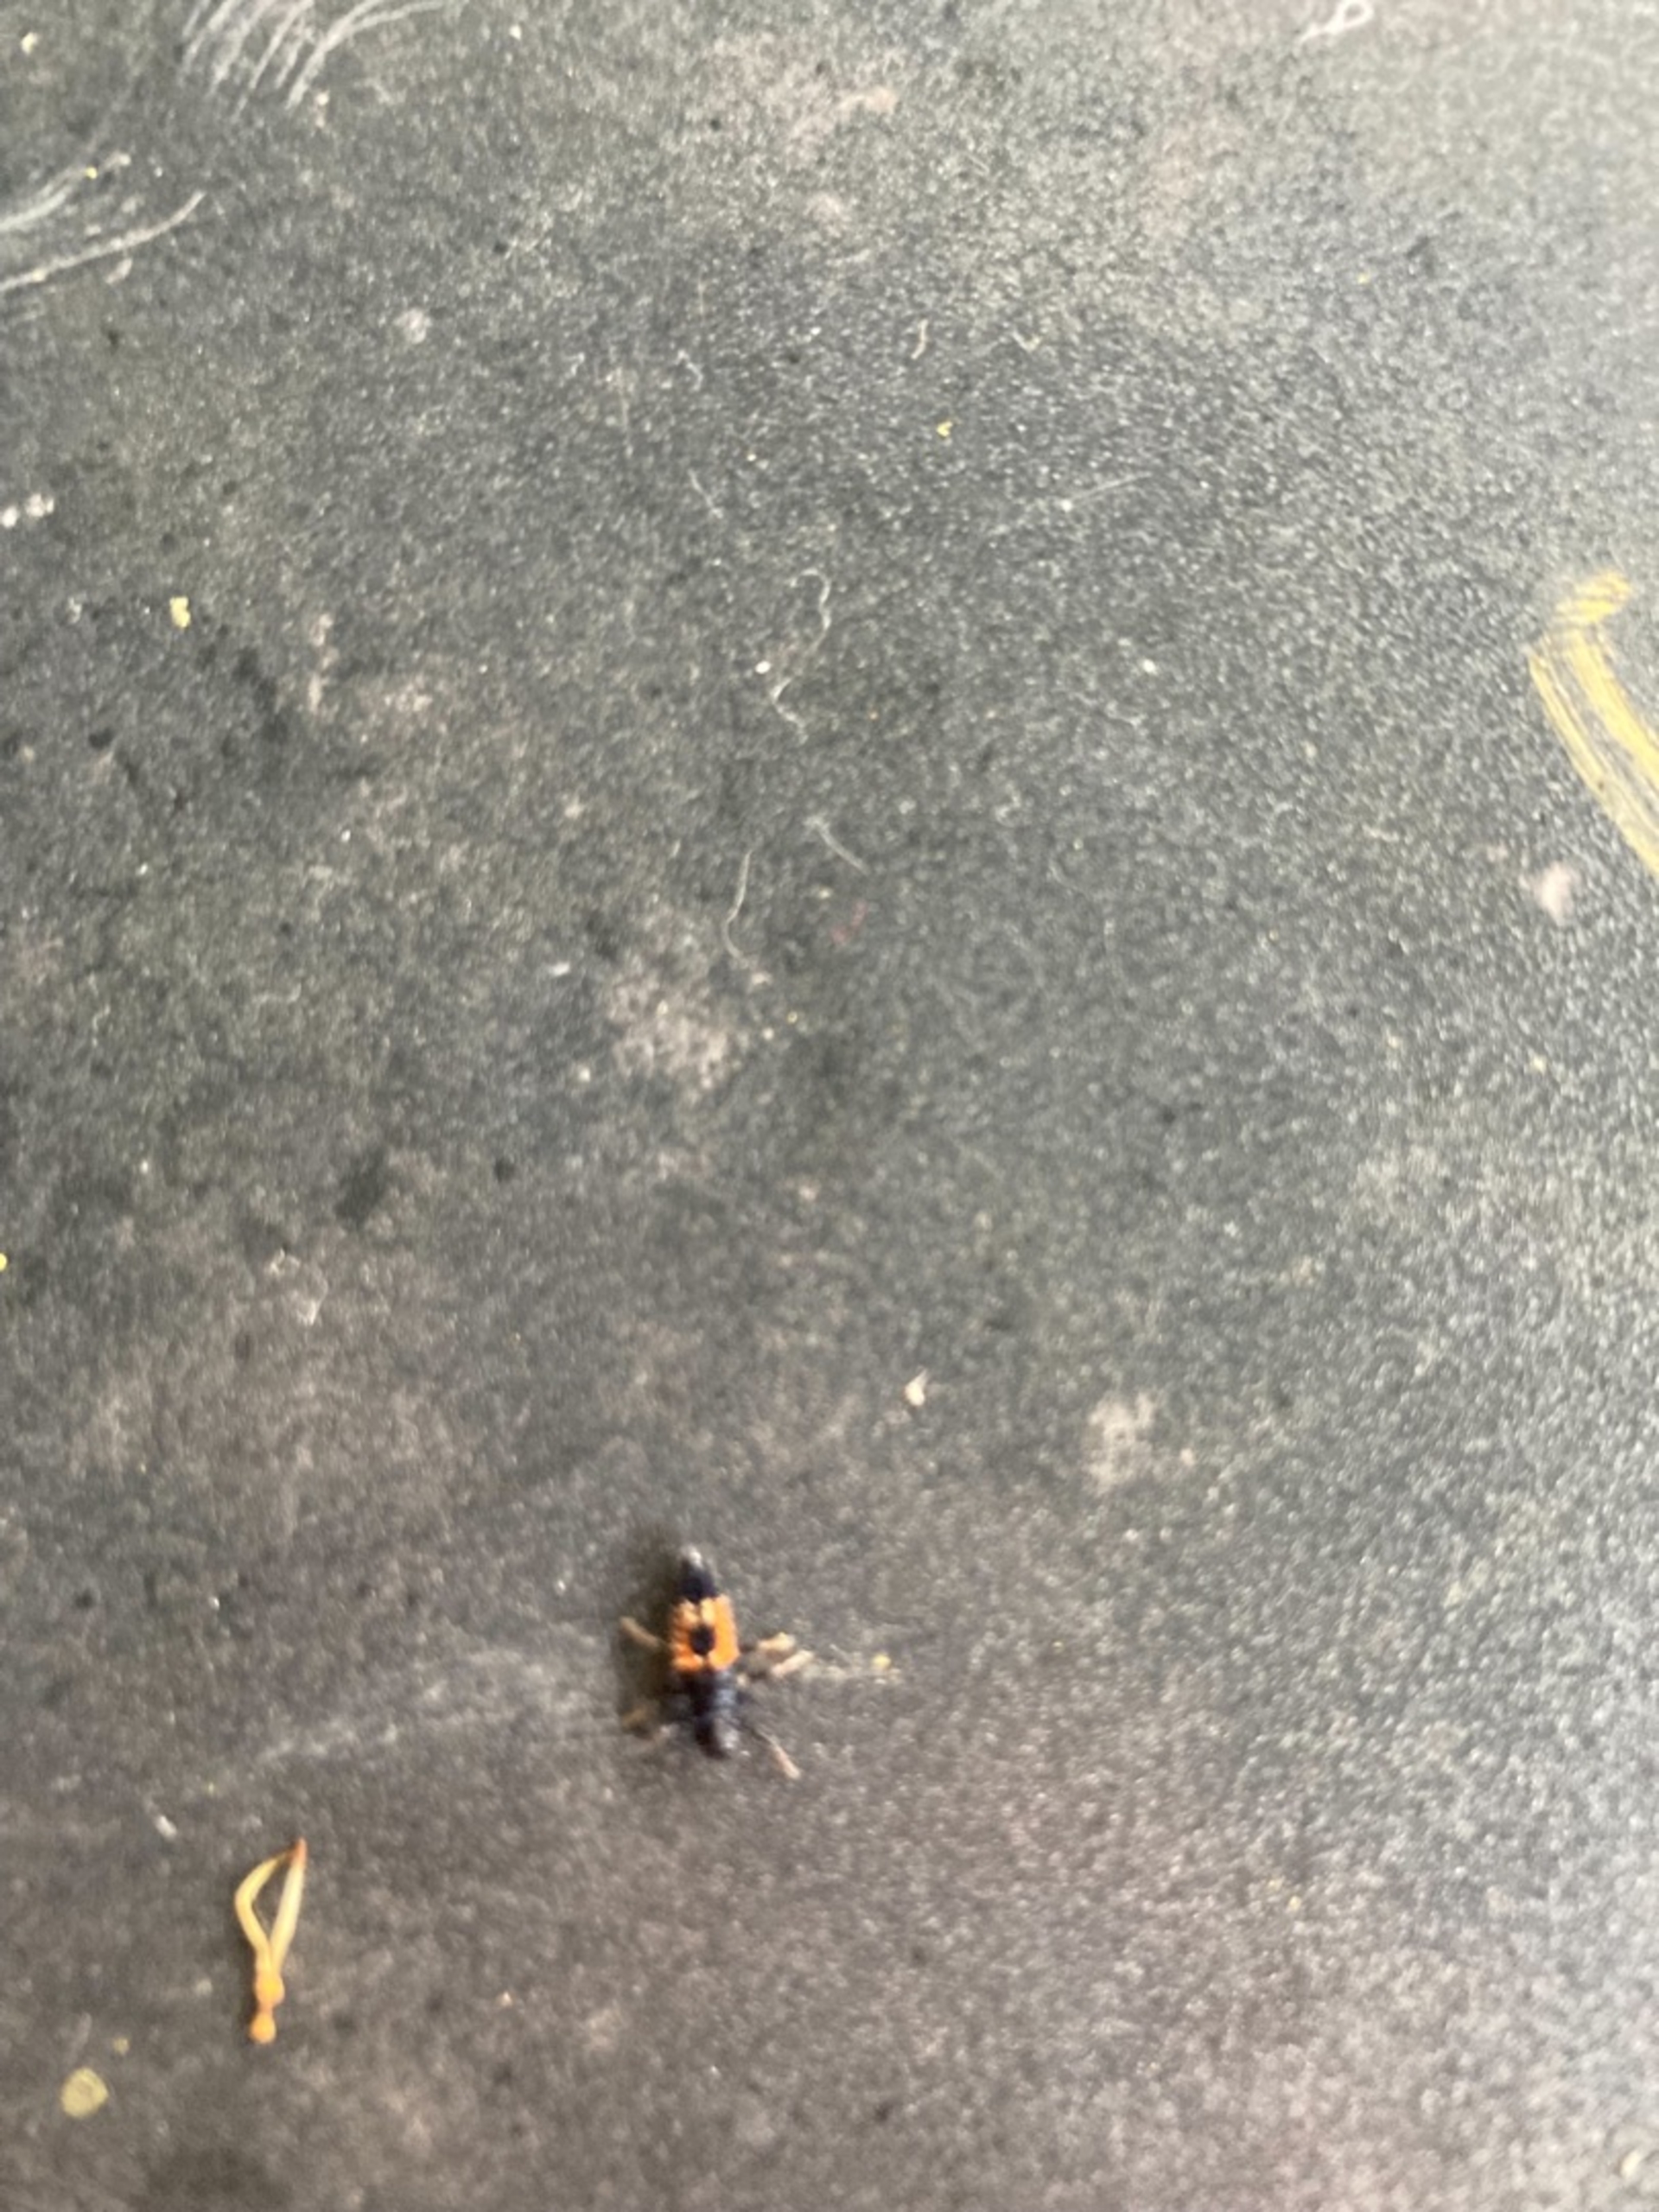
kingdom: Animalia
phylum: Arthropoda
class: Insecta
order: Coleoptera
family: Coccinellidae
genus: Harmonia
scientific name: Harmonia axyridis
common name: Harlekinmariehøne
